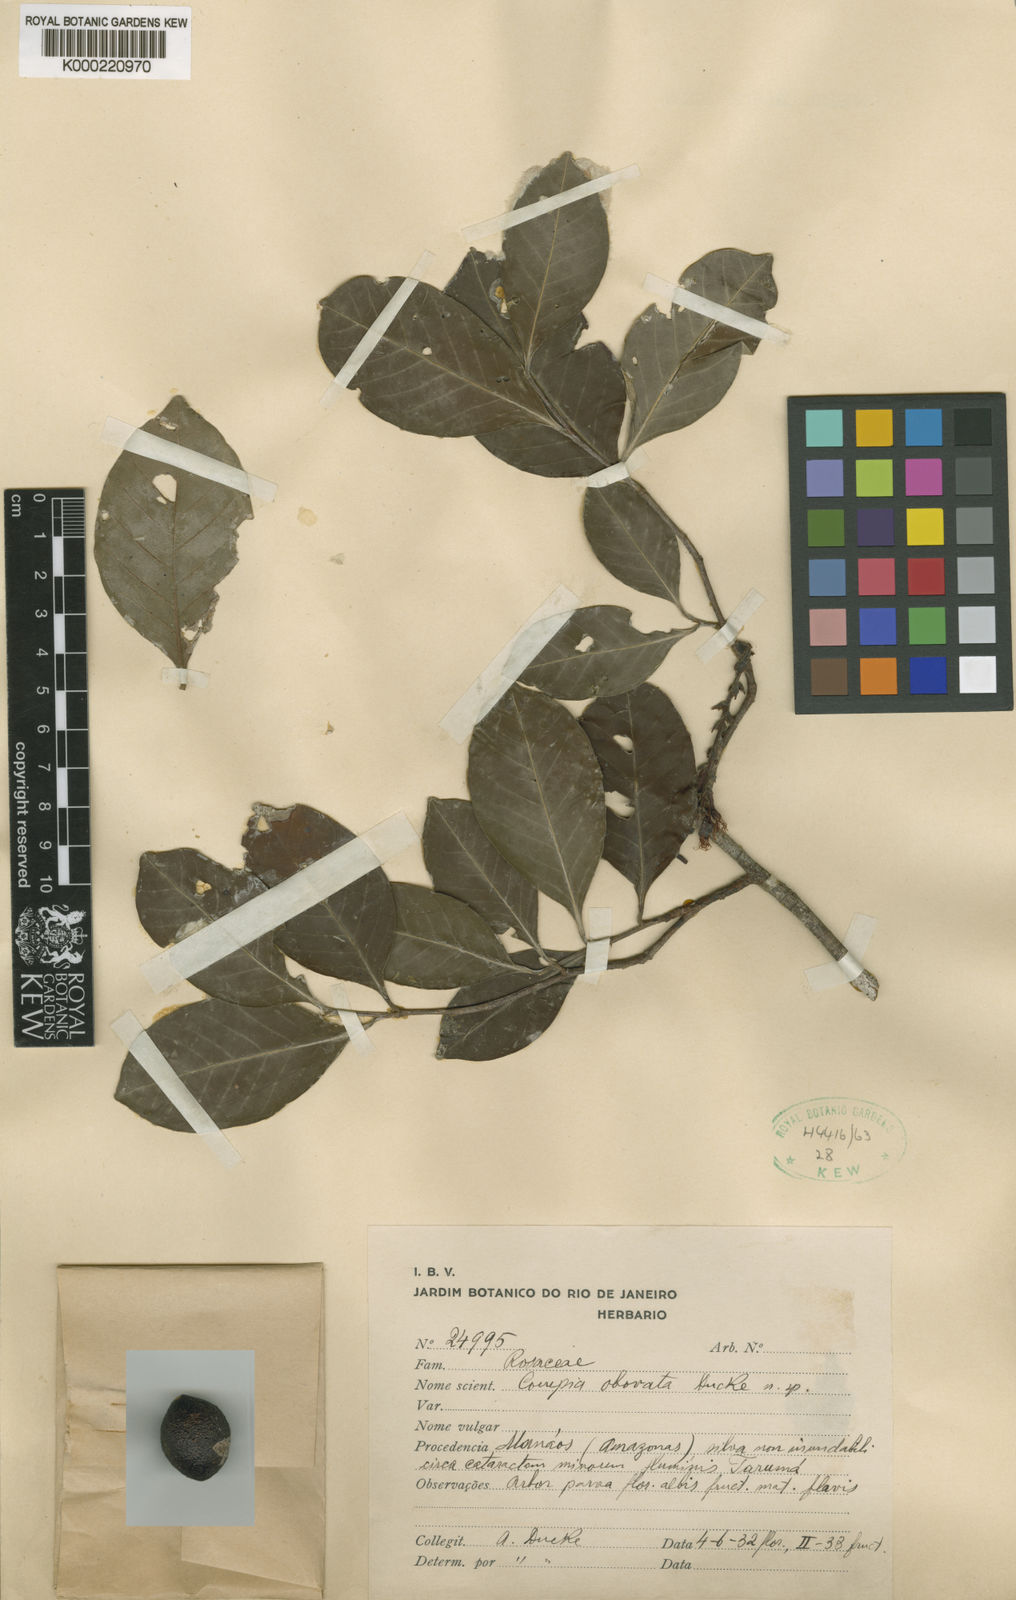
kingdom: Plantae
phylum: Tracheophyta
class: Magnoliopsida
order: Malpighiales
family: Chrysobalanaceae
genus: Couepia
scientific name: Couepia obovata
